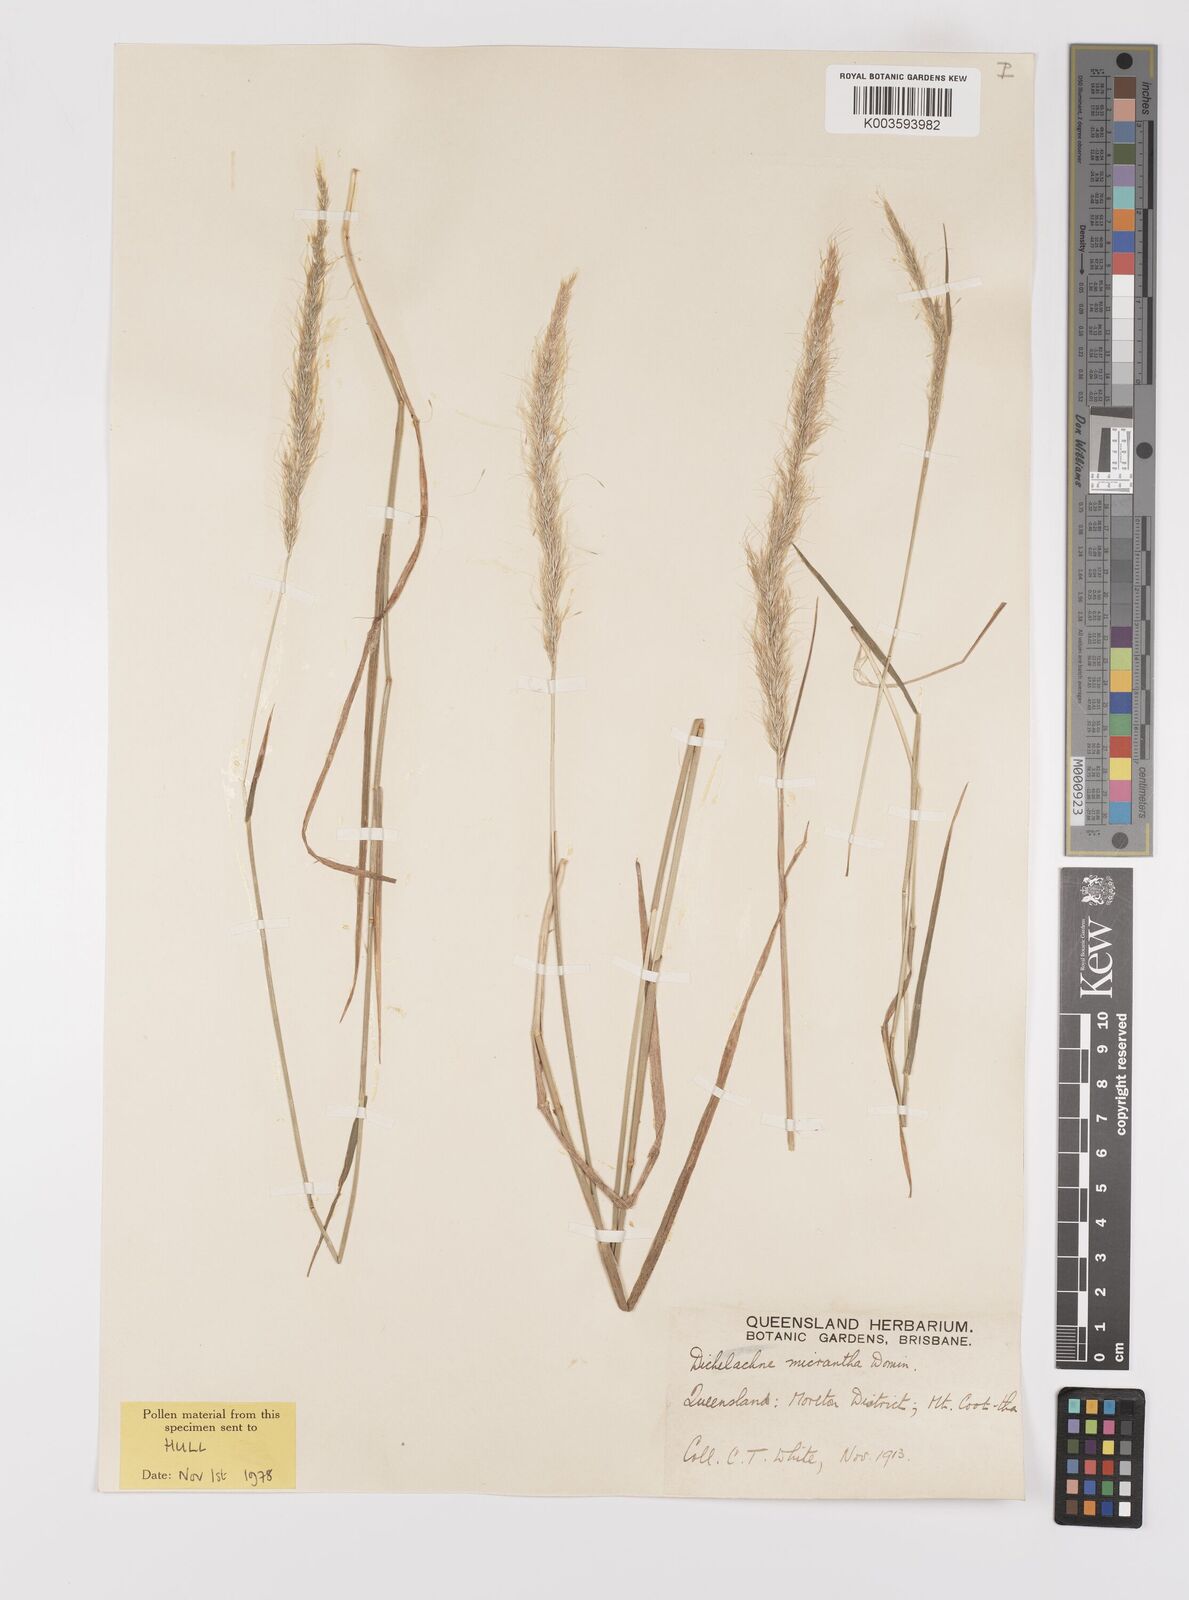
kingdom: Plantae
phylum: Tracheophyta
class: Liliopsida
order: Poales
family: Poaceae
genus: Dichelachne
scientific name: Dichelachne micrantha
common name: Plumegrass
